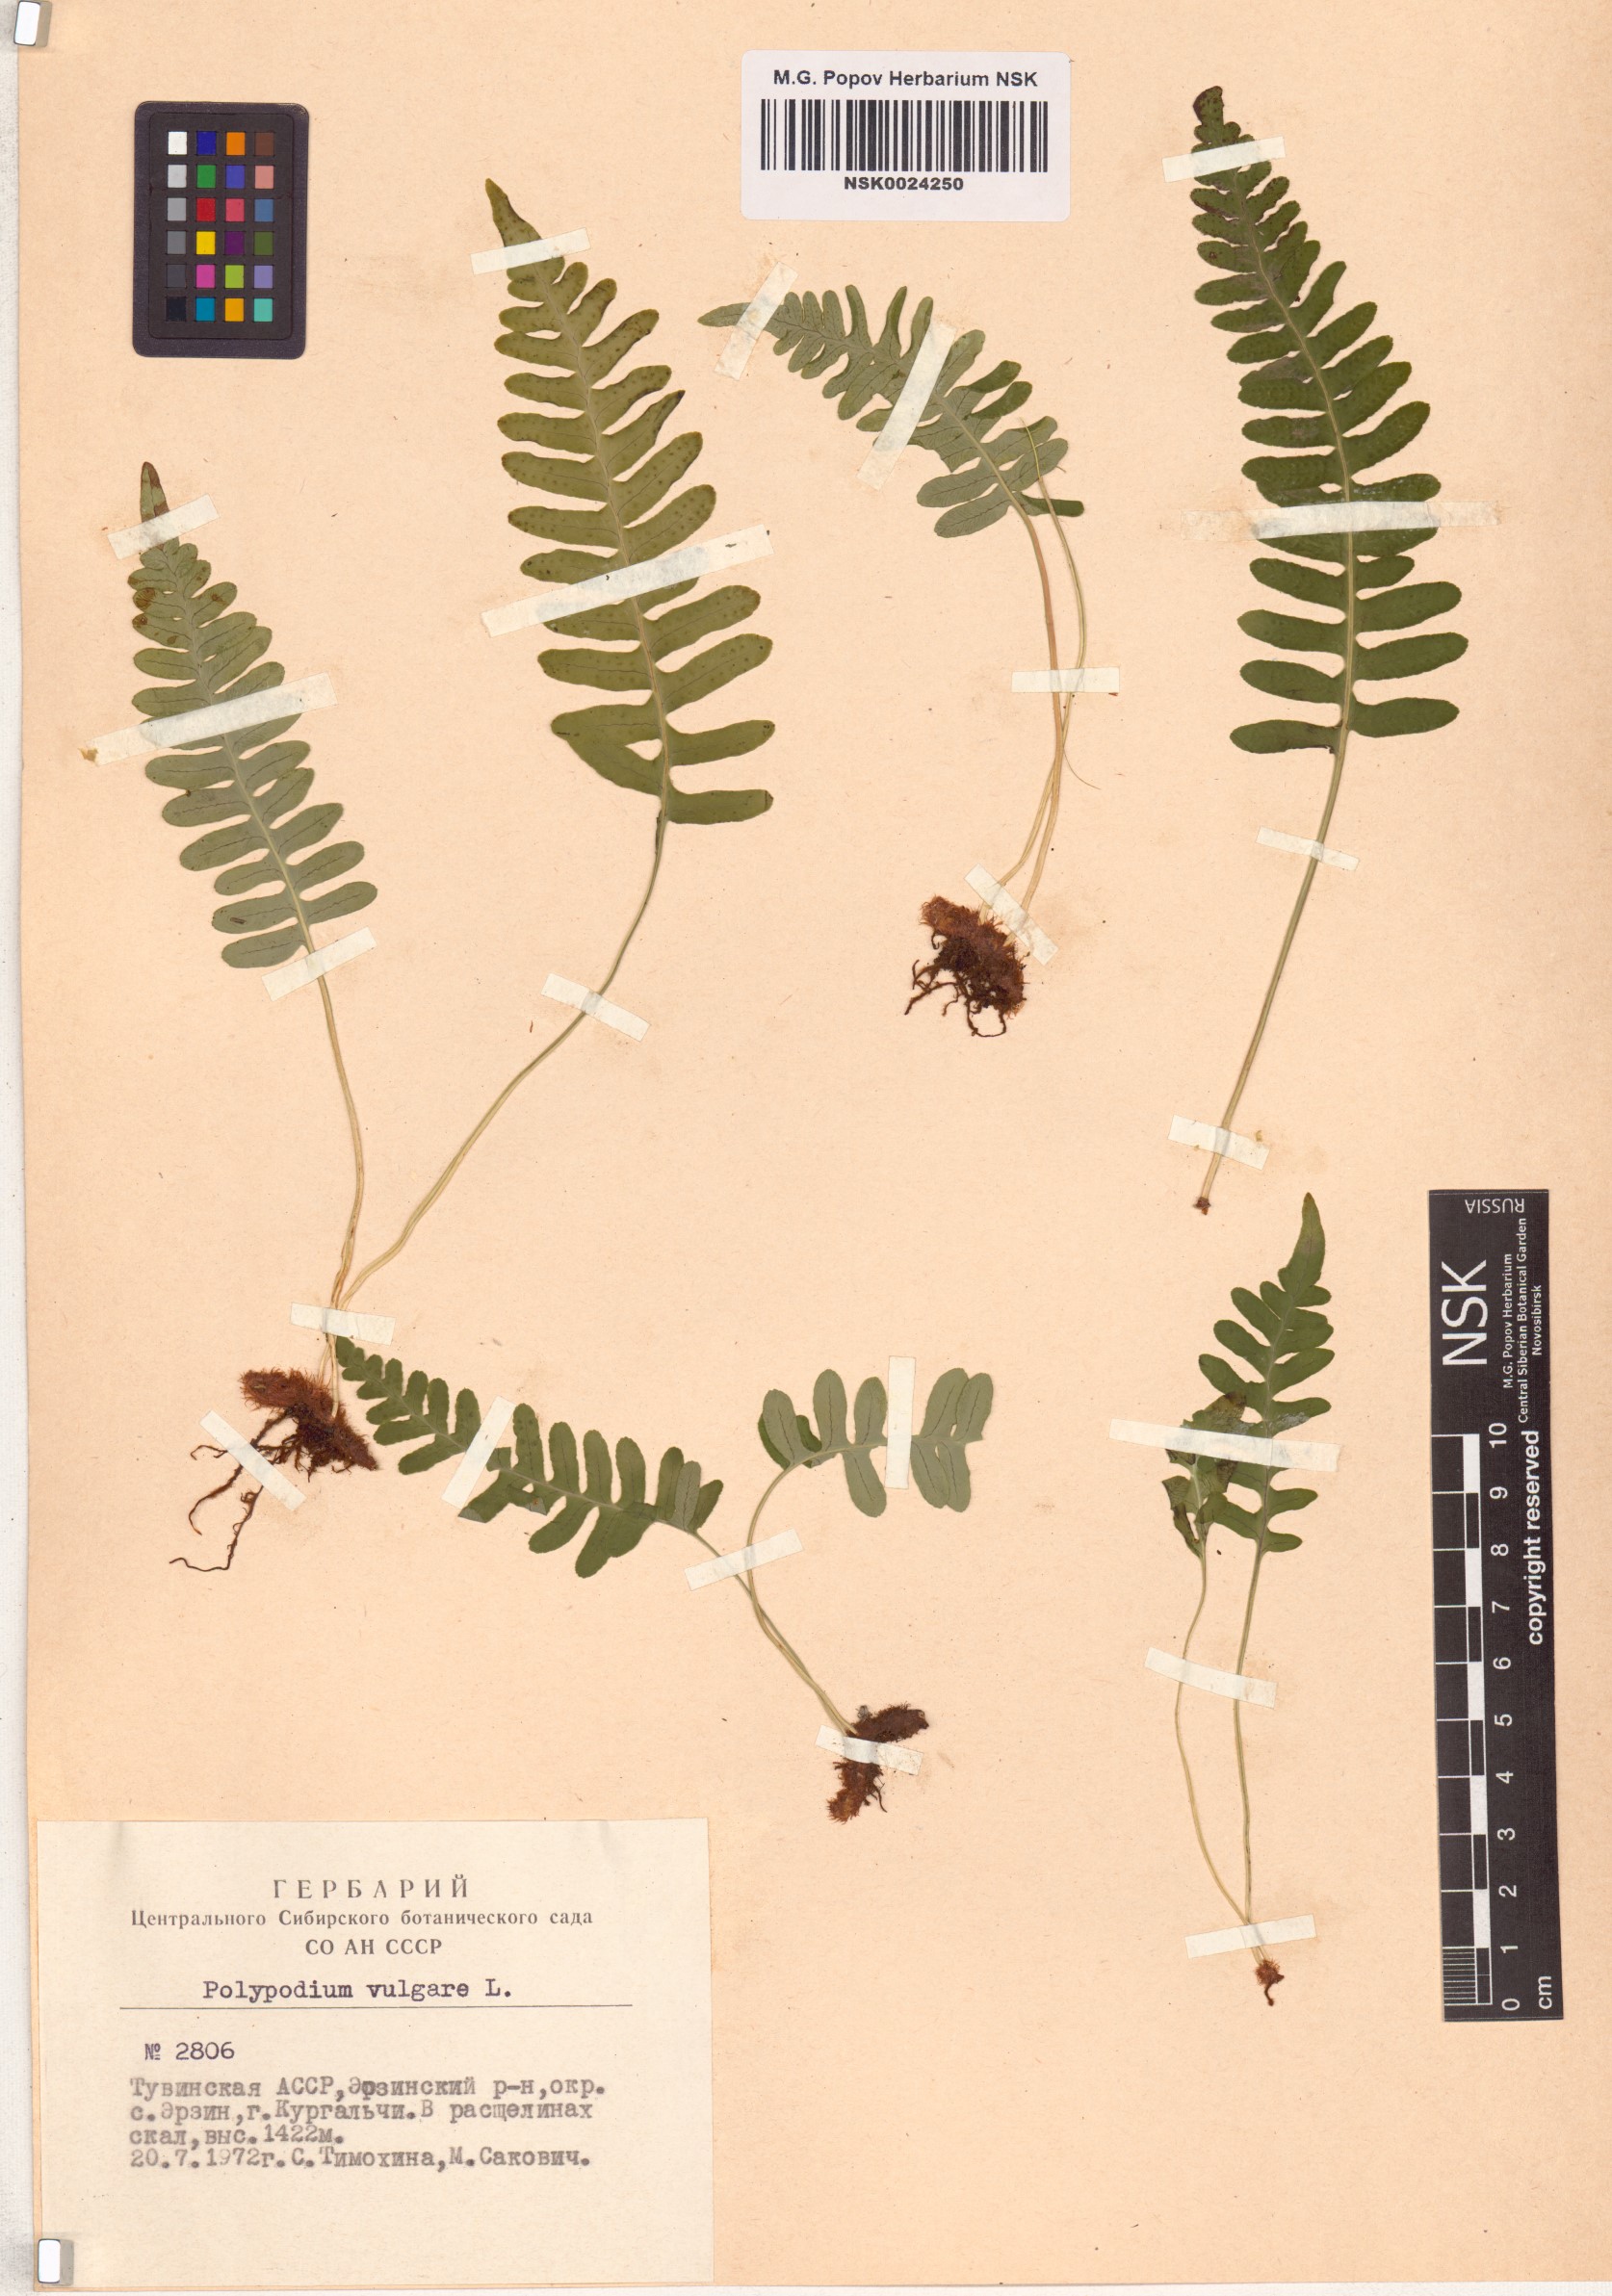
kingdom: Plantae
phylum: Tracheophyta
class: Polypodiopsida
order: Polypodiales
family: Polypodiaceae
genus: Polypodium
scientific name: Polypodium vulgare
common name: Common polypody
